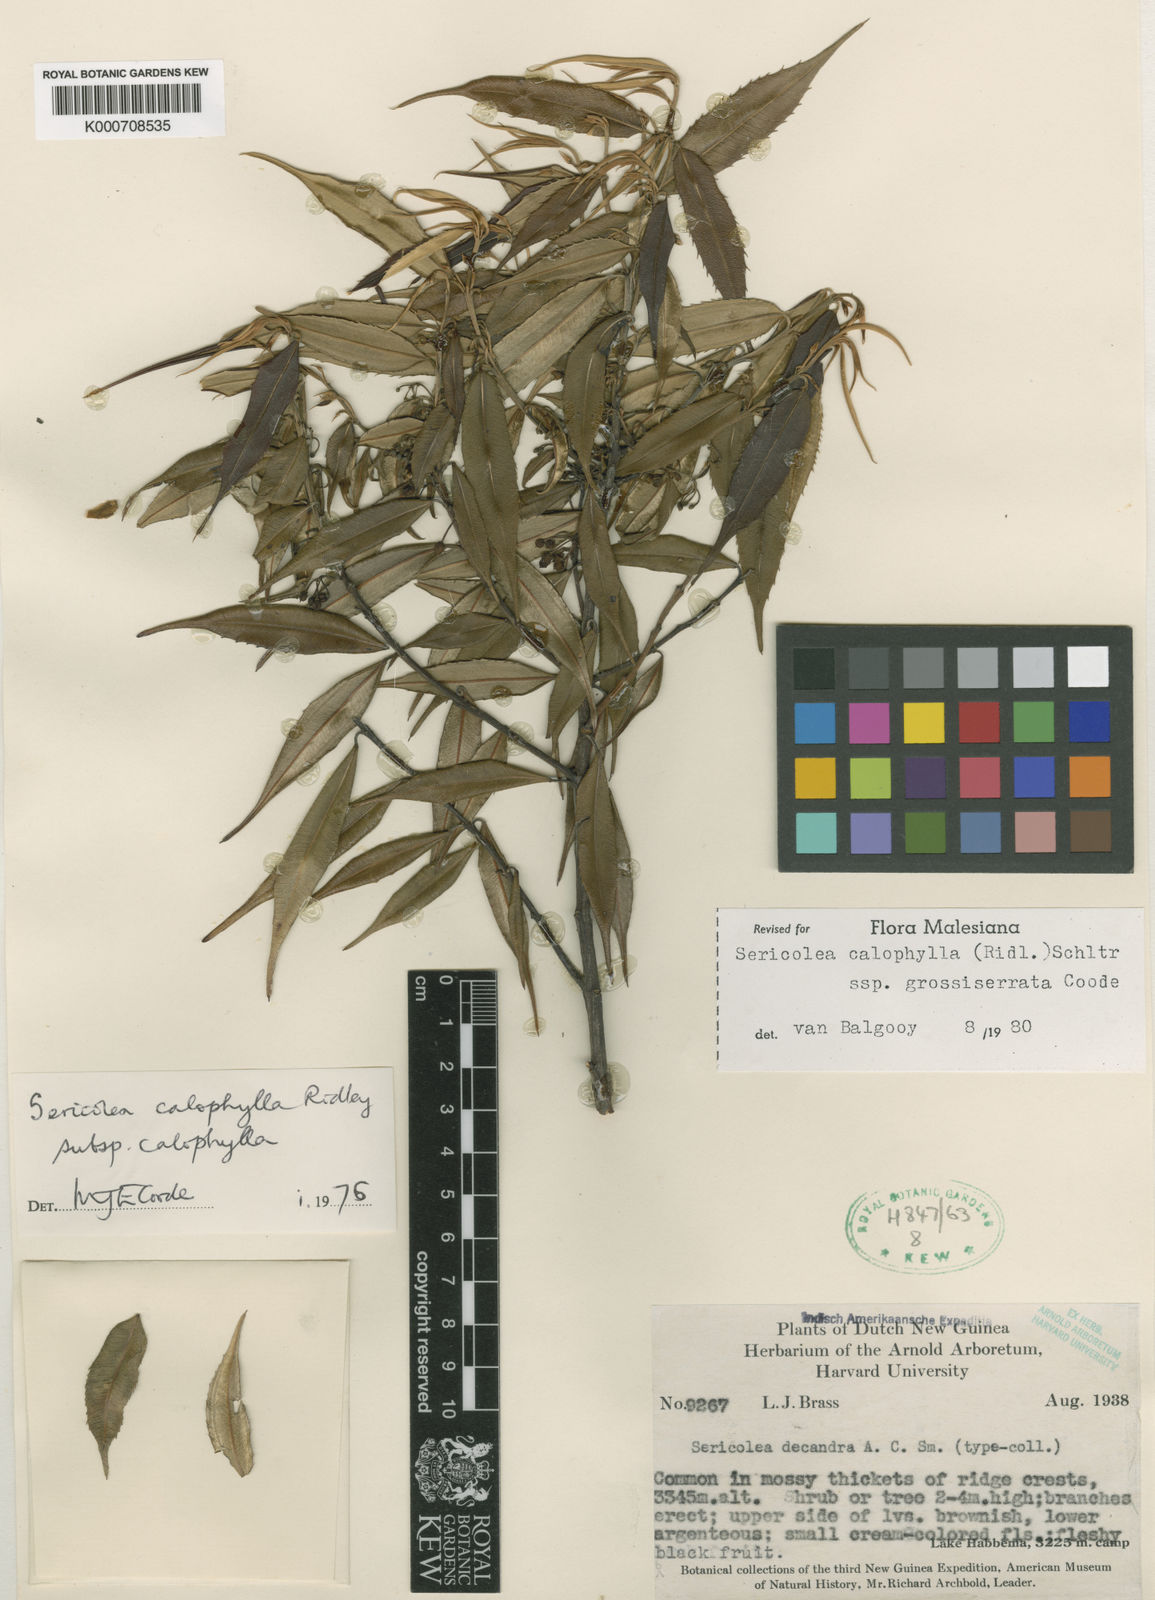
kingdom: Plantae
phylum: Tracheophyta
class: Magnoliopsida
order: Oxalidales
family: Elaeocarpaceae
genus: Sericolea
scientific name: Sericolea calophylla
